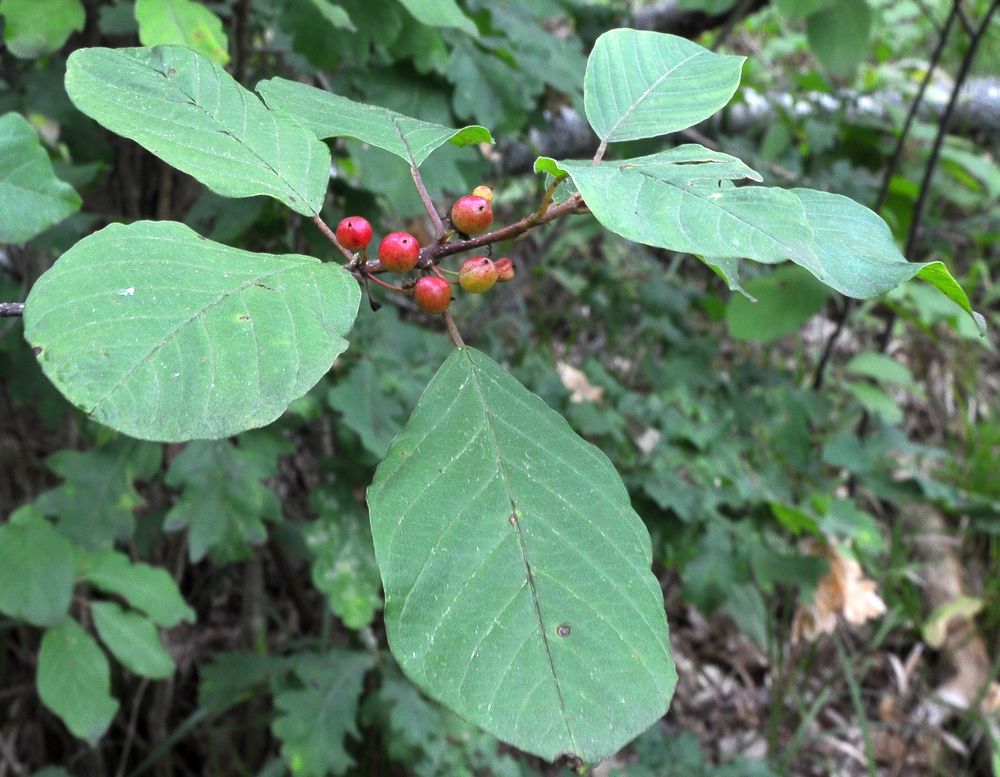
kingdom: Plantae
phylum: Tracheophyta
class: Magnoliopsida
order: Rosales
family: Rhamnaceae
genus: Frangula
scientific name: Frangula alnus
